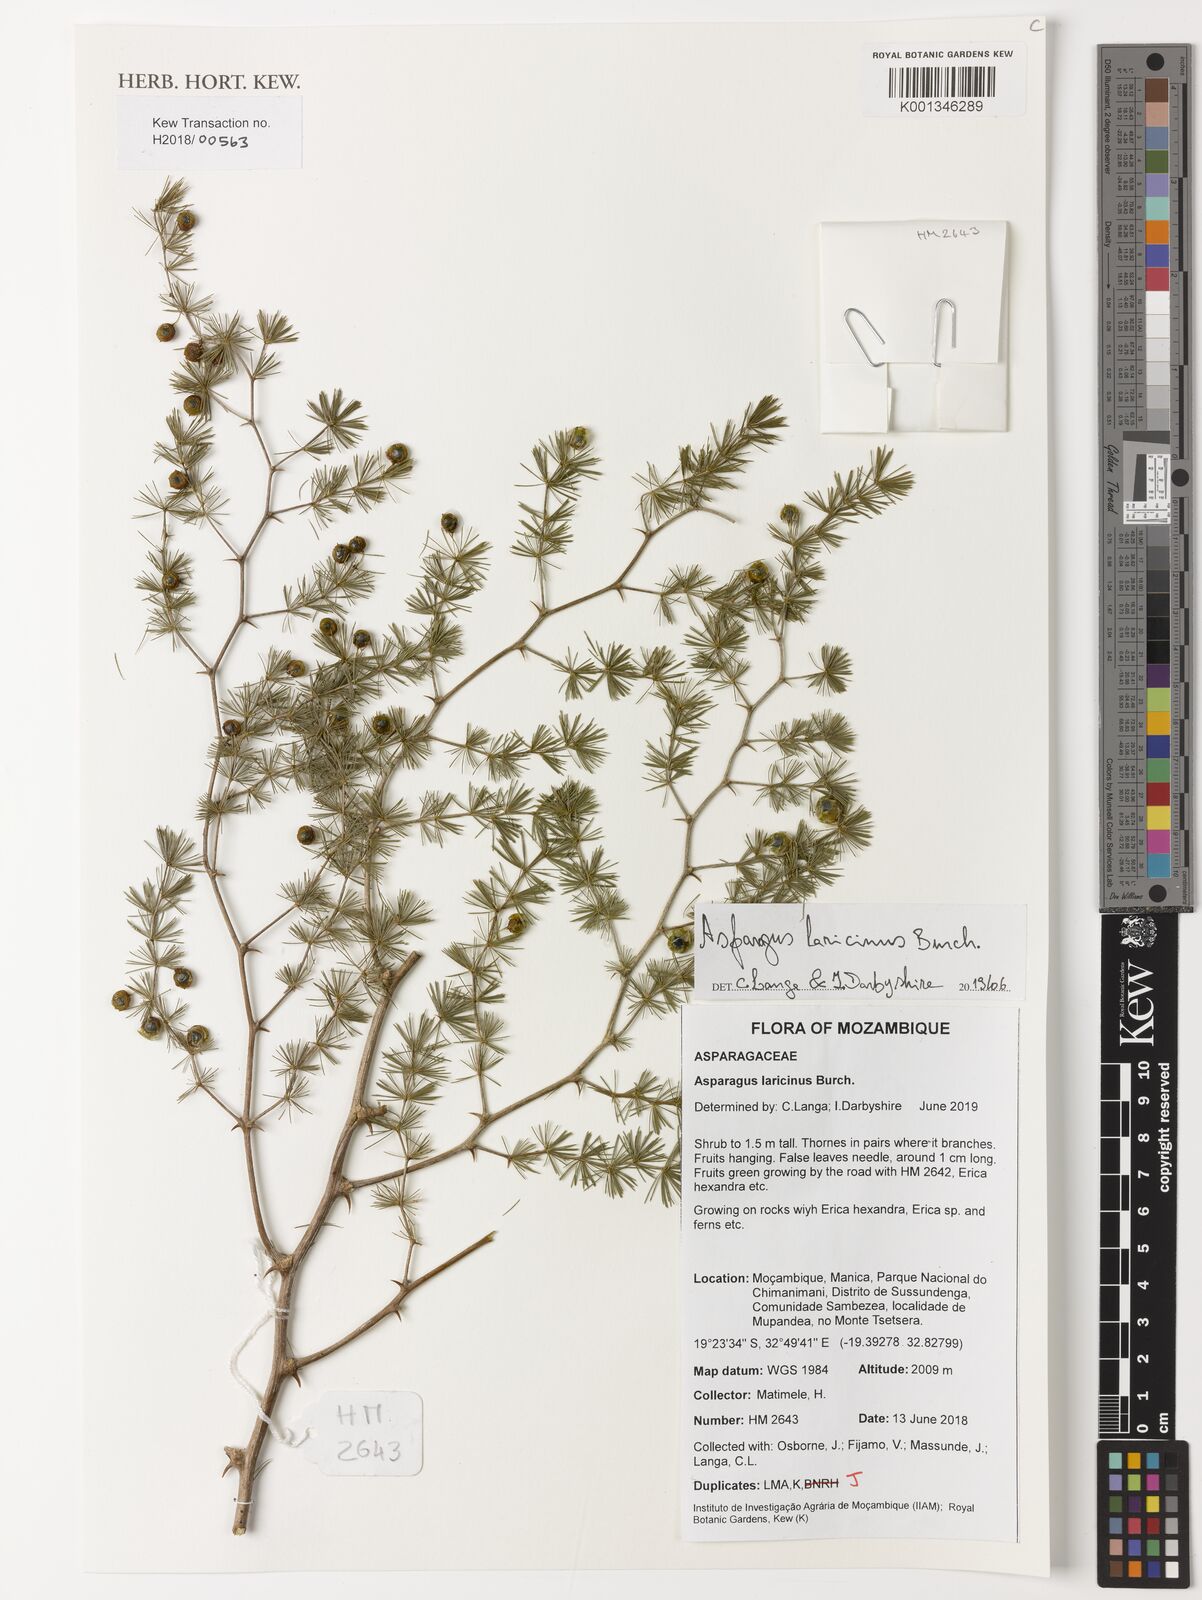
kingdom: Plantae
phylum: Tracheophyta
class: Liliopsida
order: Asparagales
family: Asparagaceae
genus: Asparagus
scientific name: Asparagus laricinus
